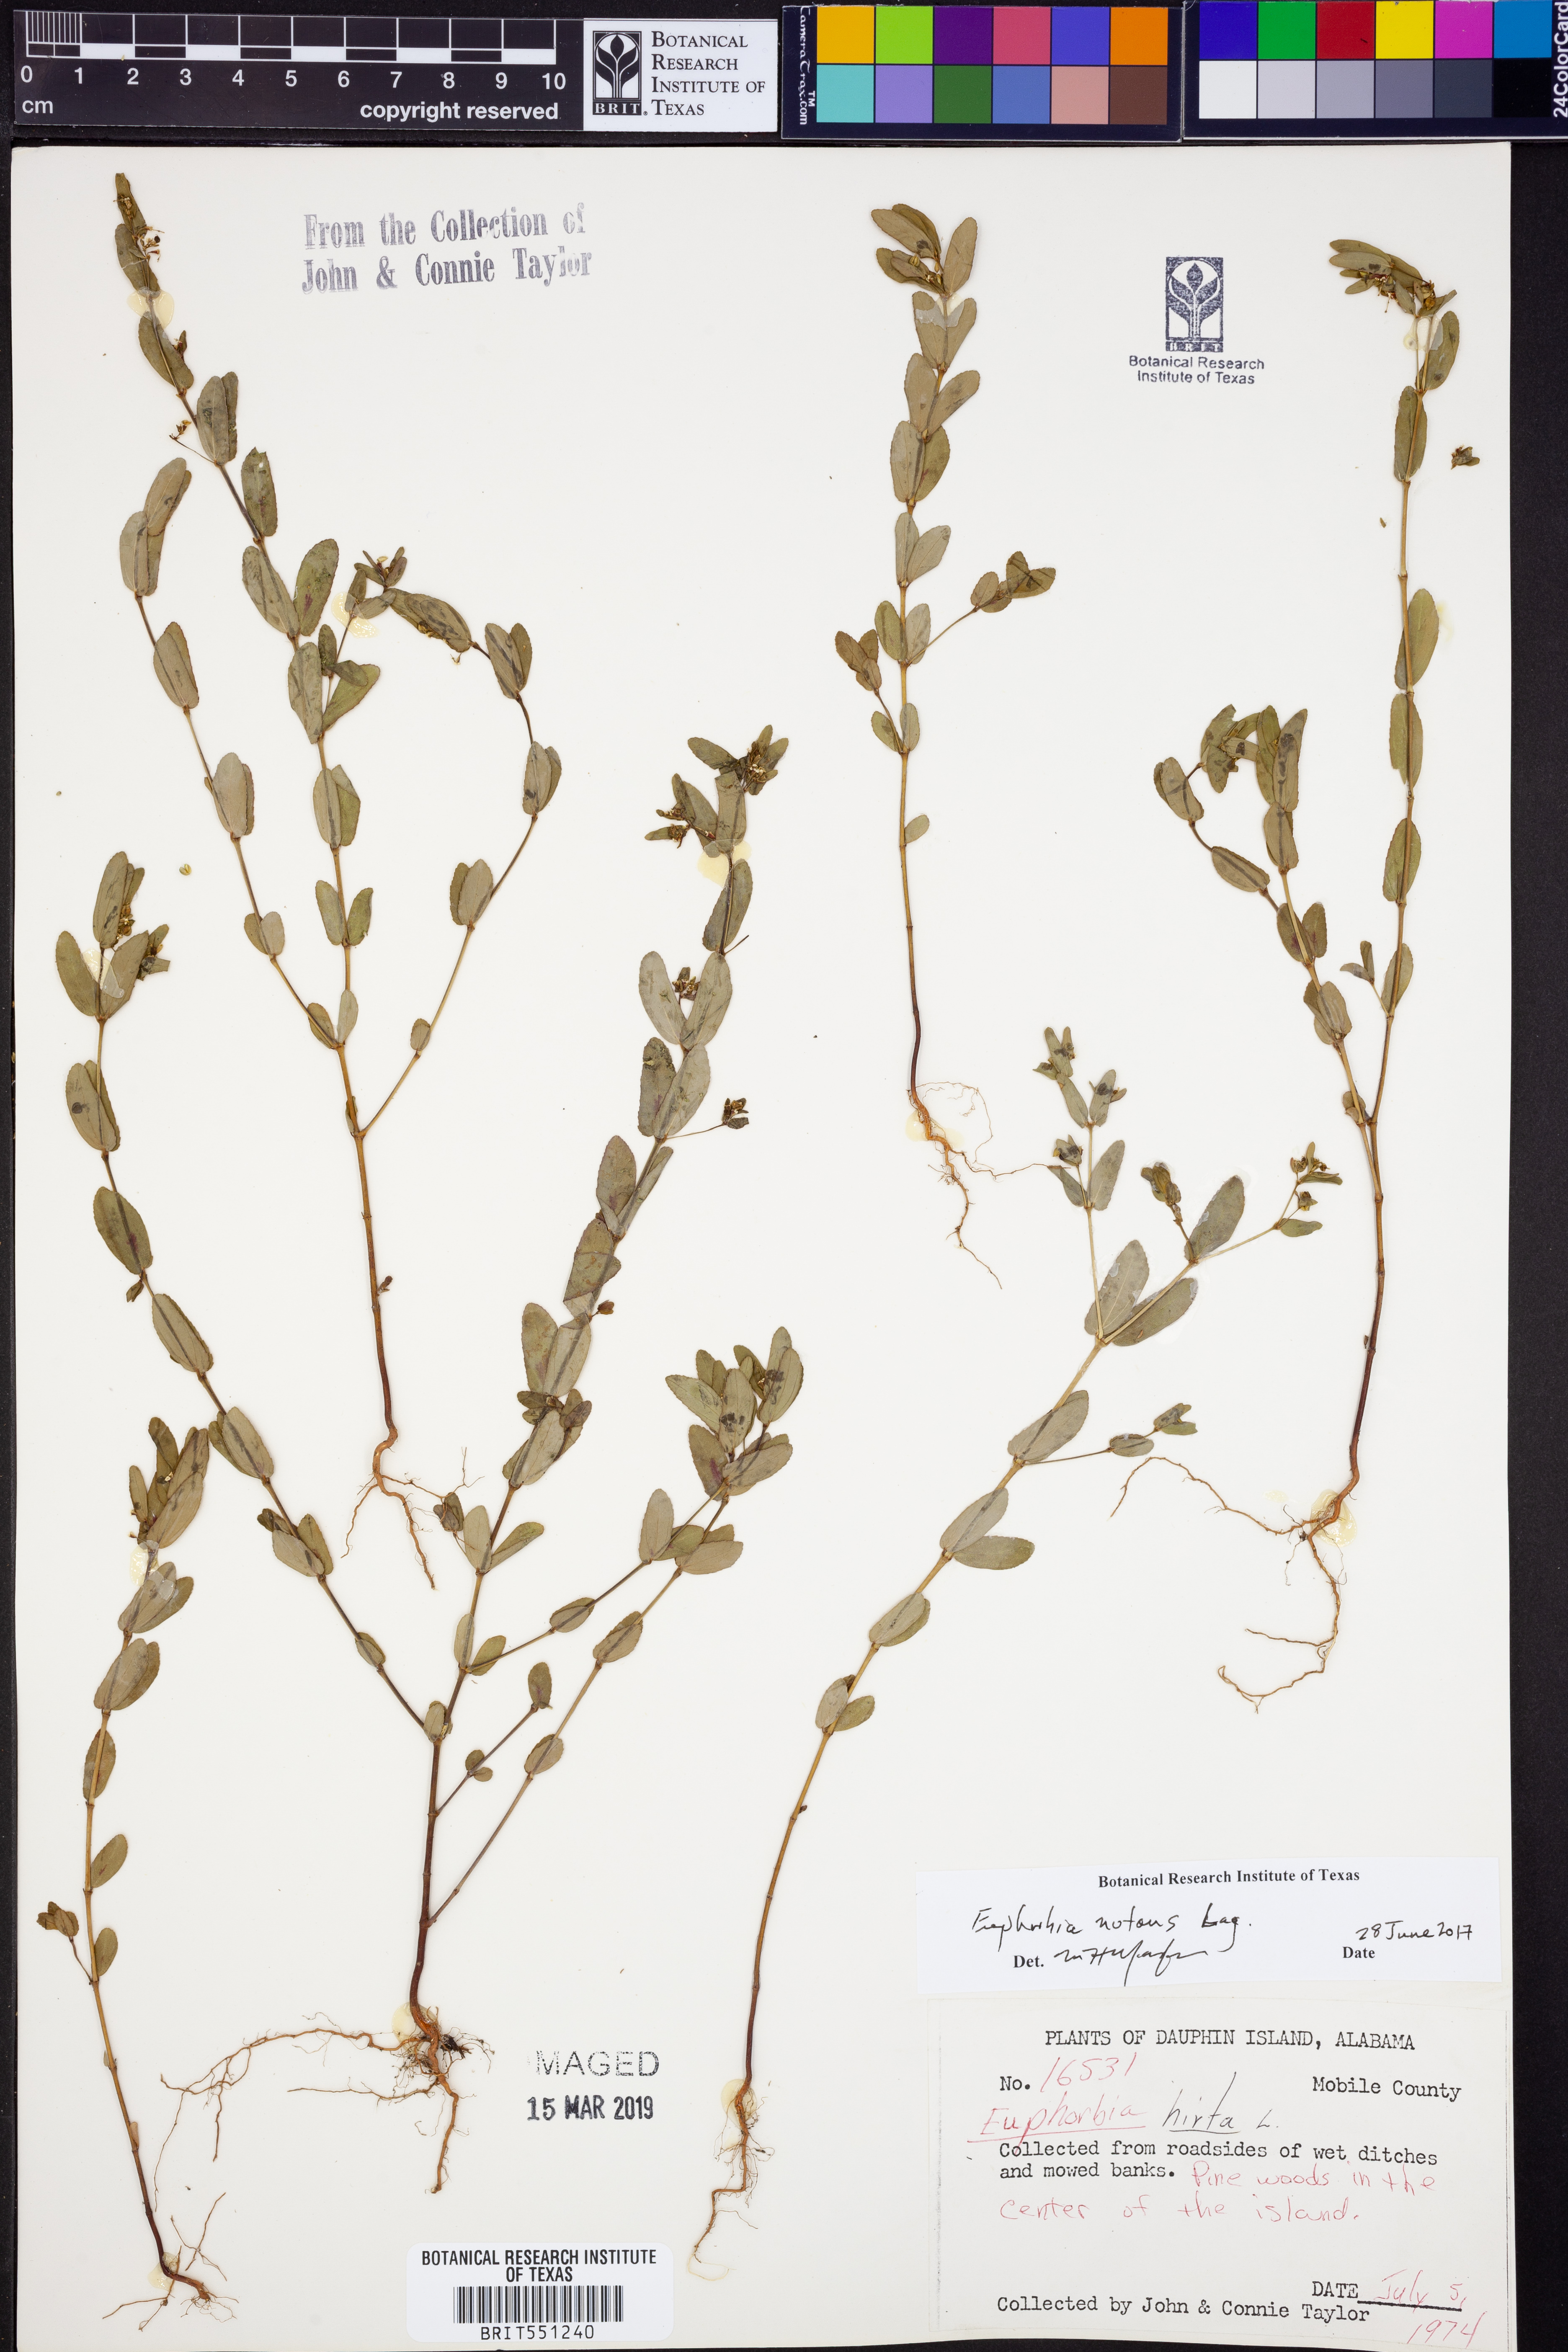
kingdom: Plantae
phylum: Tracheophyta
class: Magnoliopsida
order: Malpighiales
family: Euphorbiaceae
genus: Euphorbia
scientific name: Euphorbia nutans
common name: Eyebane
